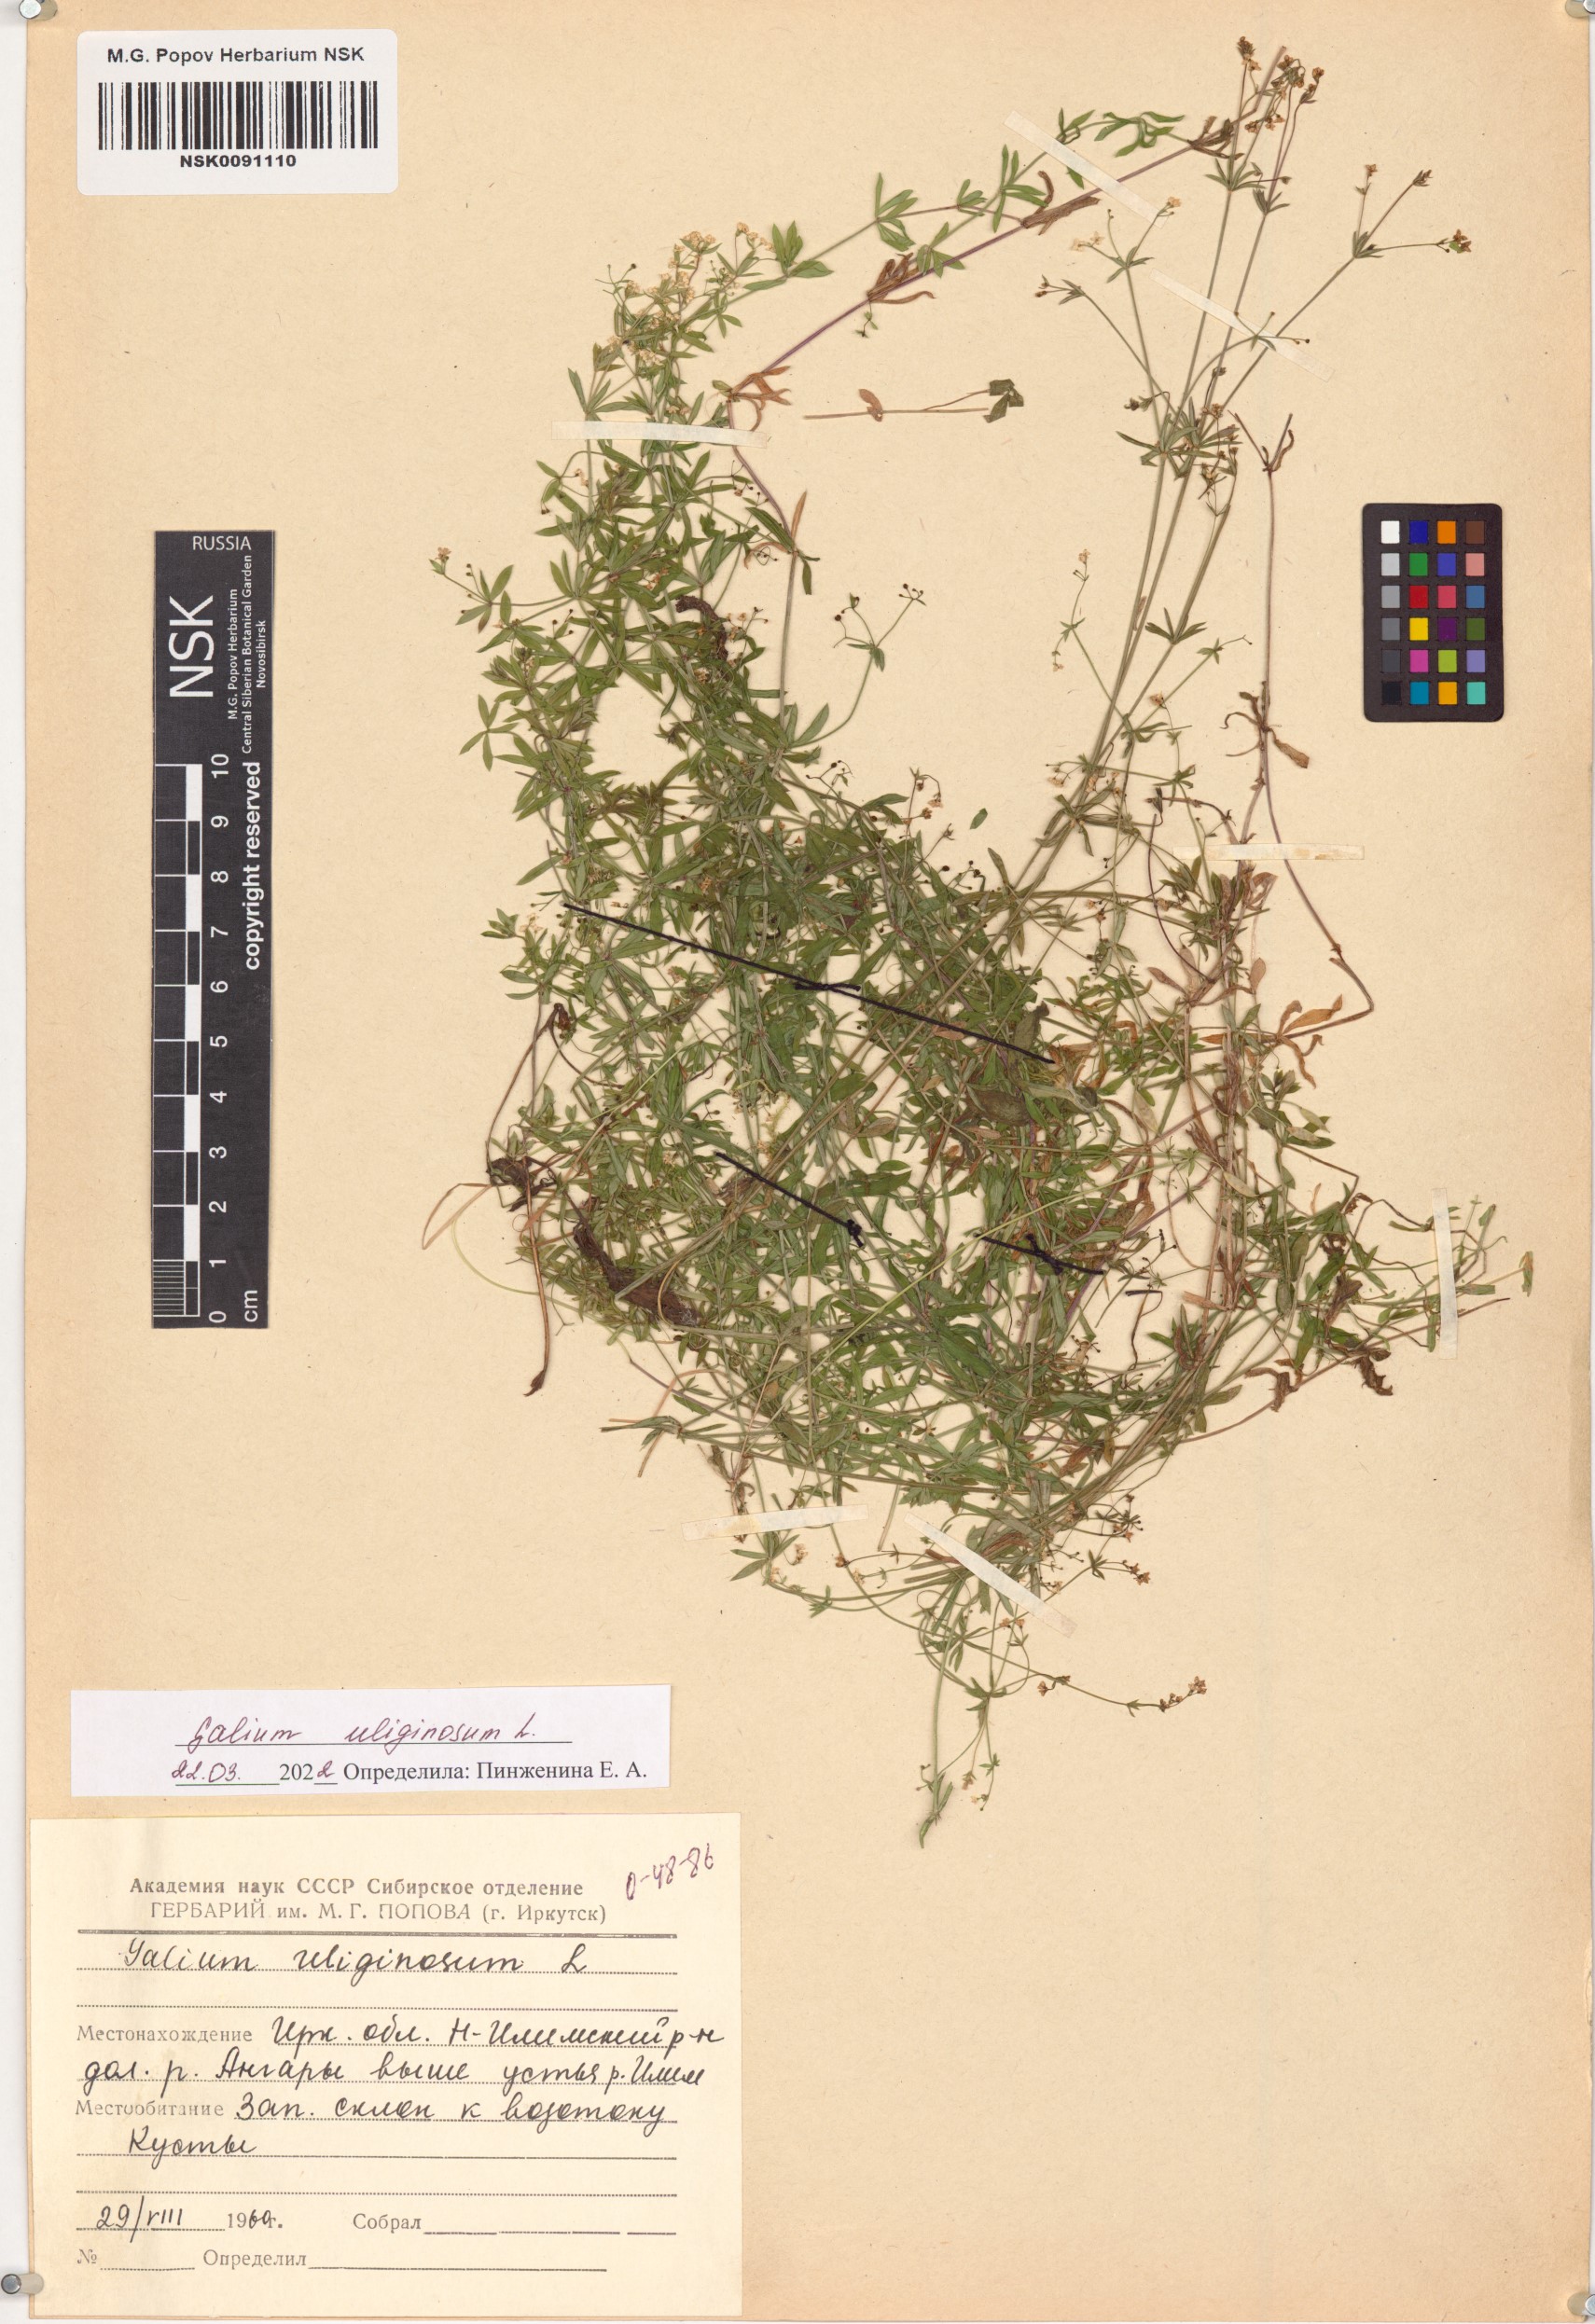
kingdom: Plantae
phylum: Tracheophyta
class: Magnoliopsida
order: Gentianales
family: Rubiaceae
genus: Galium
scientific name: Galium uliginosum
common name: Fen bedstraw
